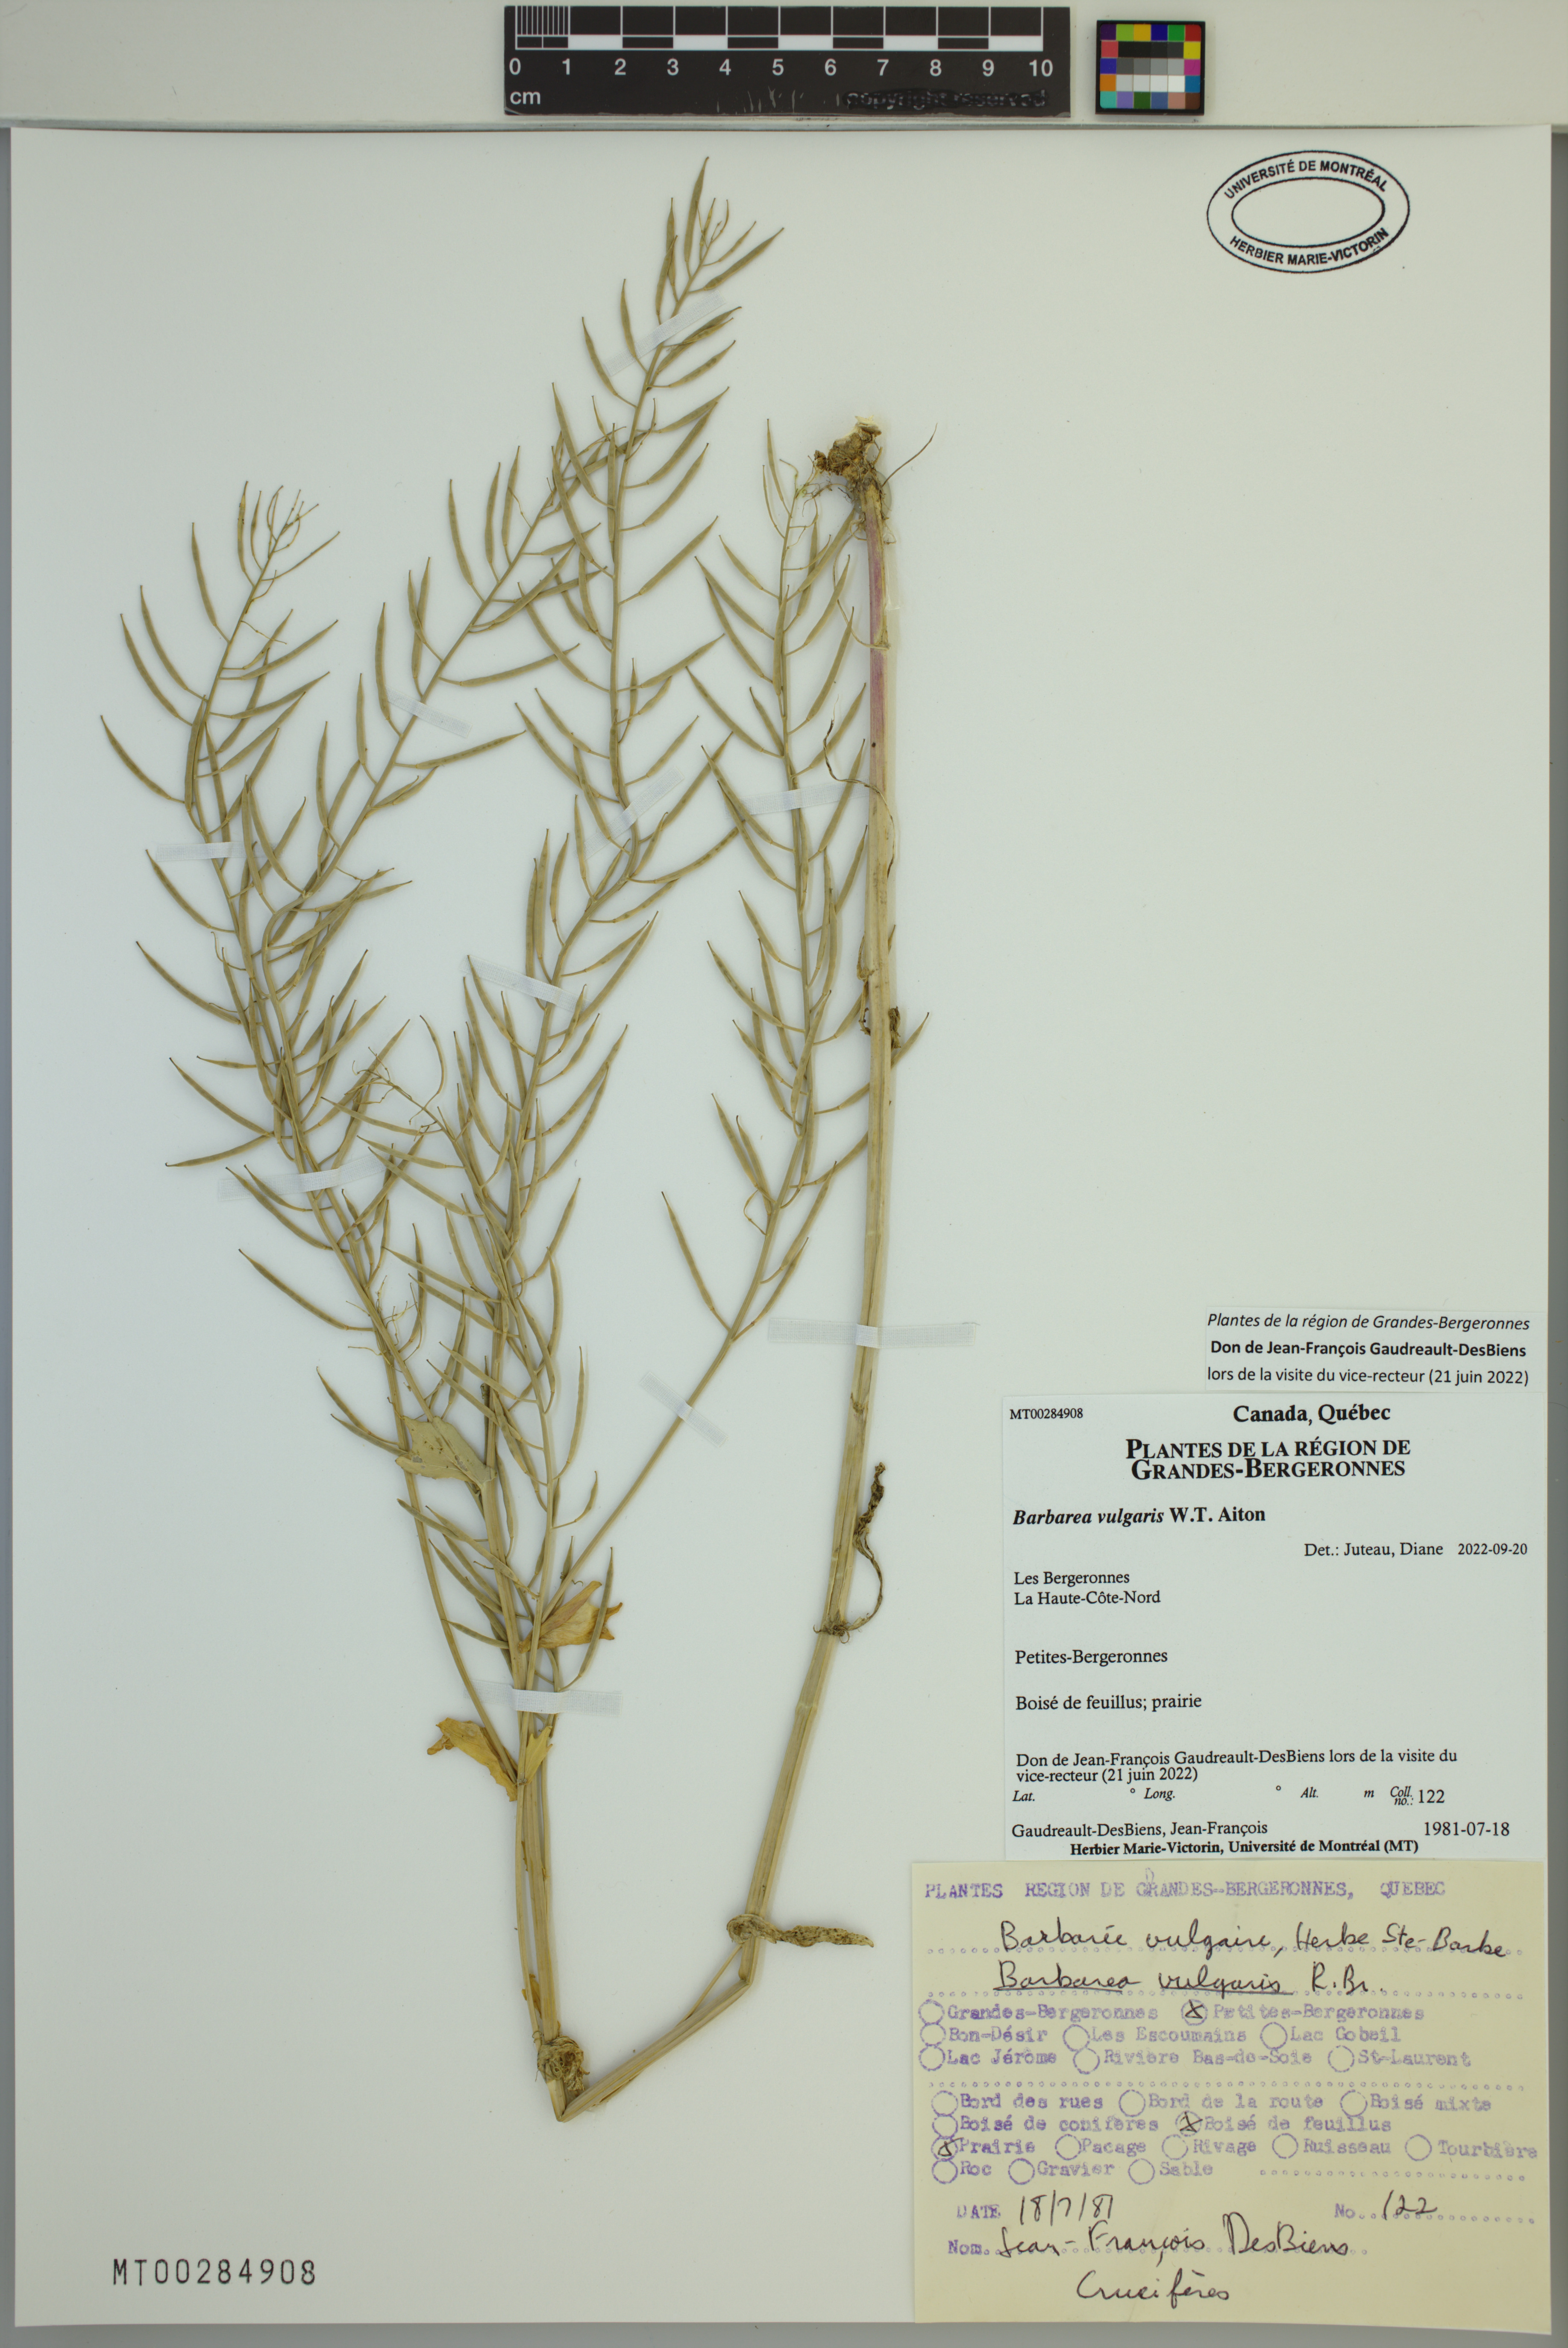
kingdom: Plantae
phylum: Tracheophyta
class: Magnoliopsida
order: Brassicales
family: Brassicaceae
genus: Barbarea
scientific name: Barbarea vulgaris
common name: Cressy-greens
